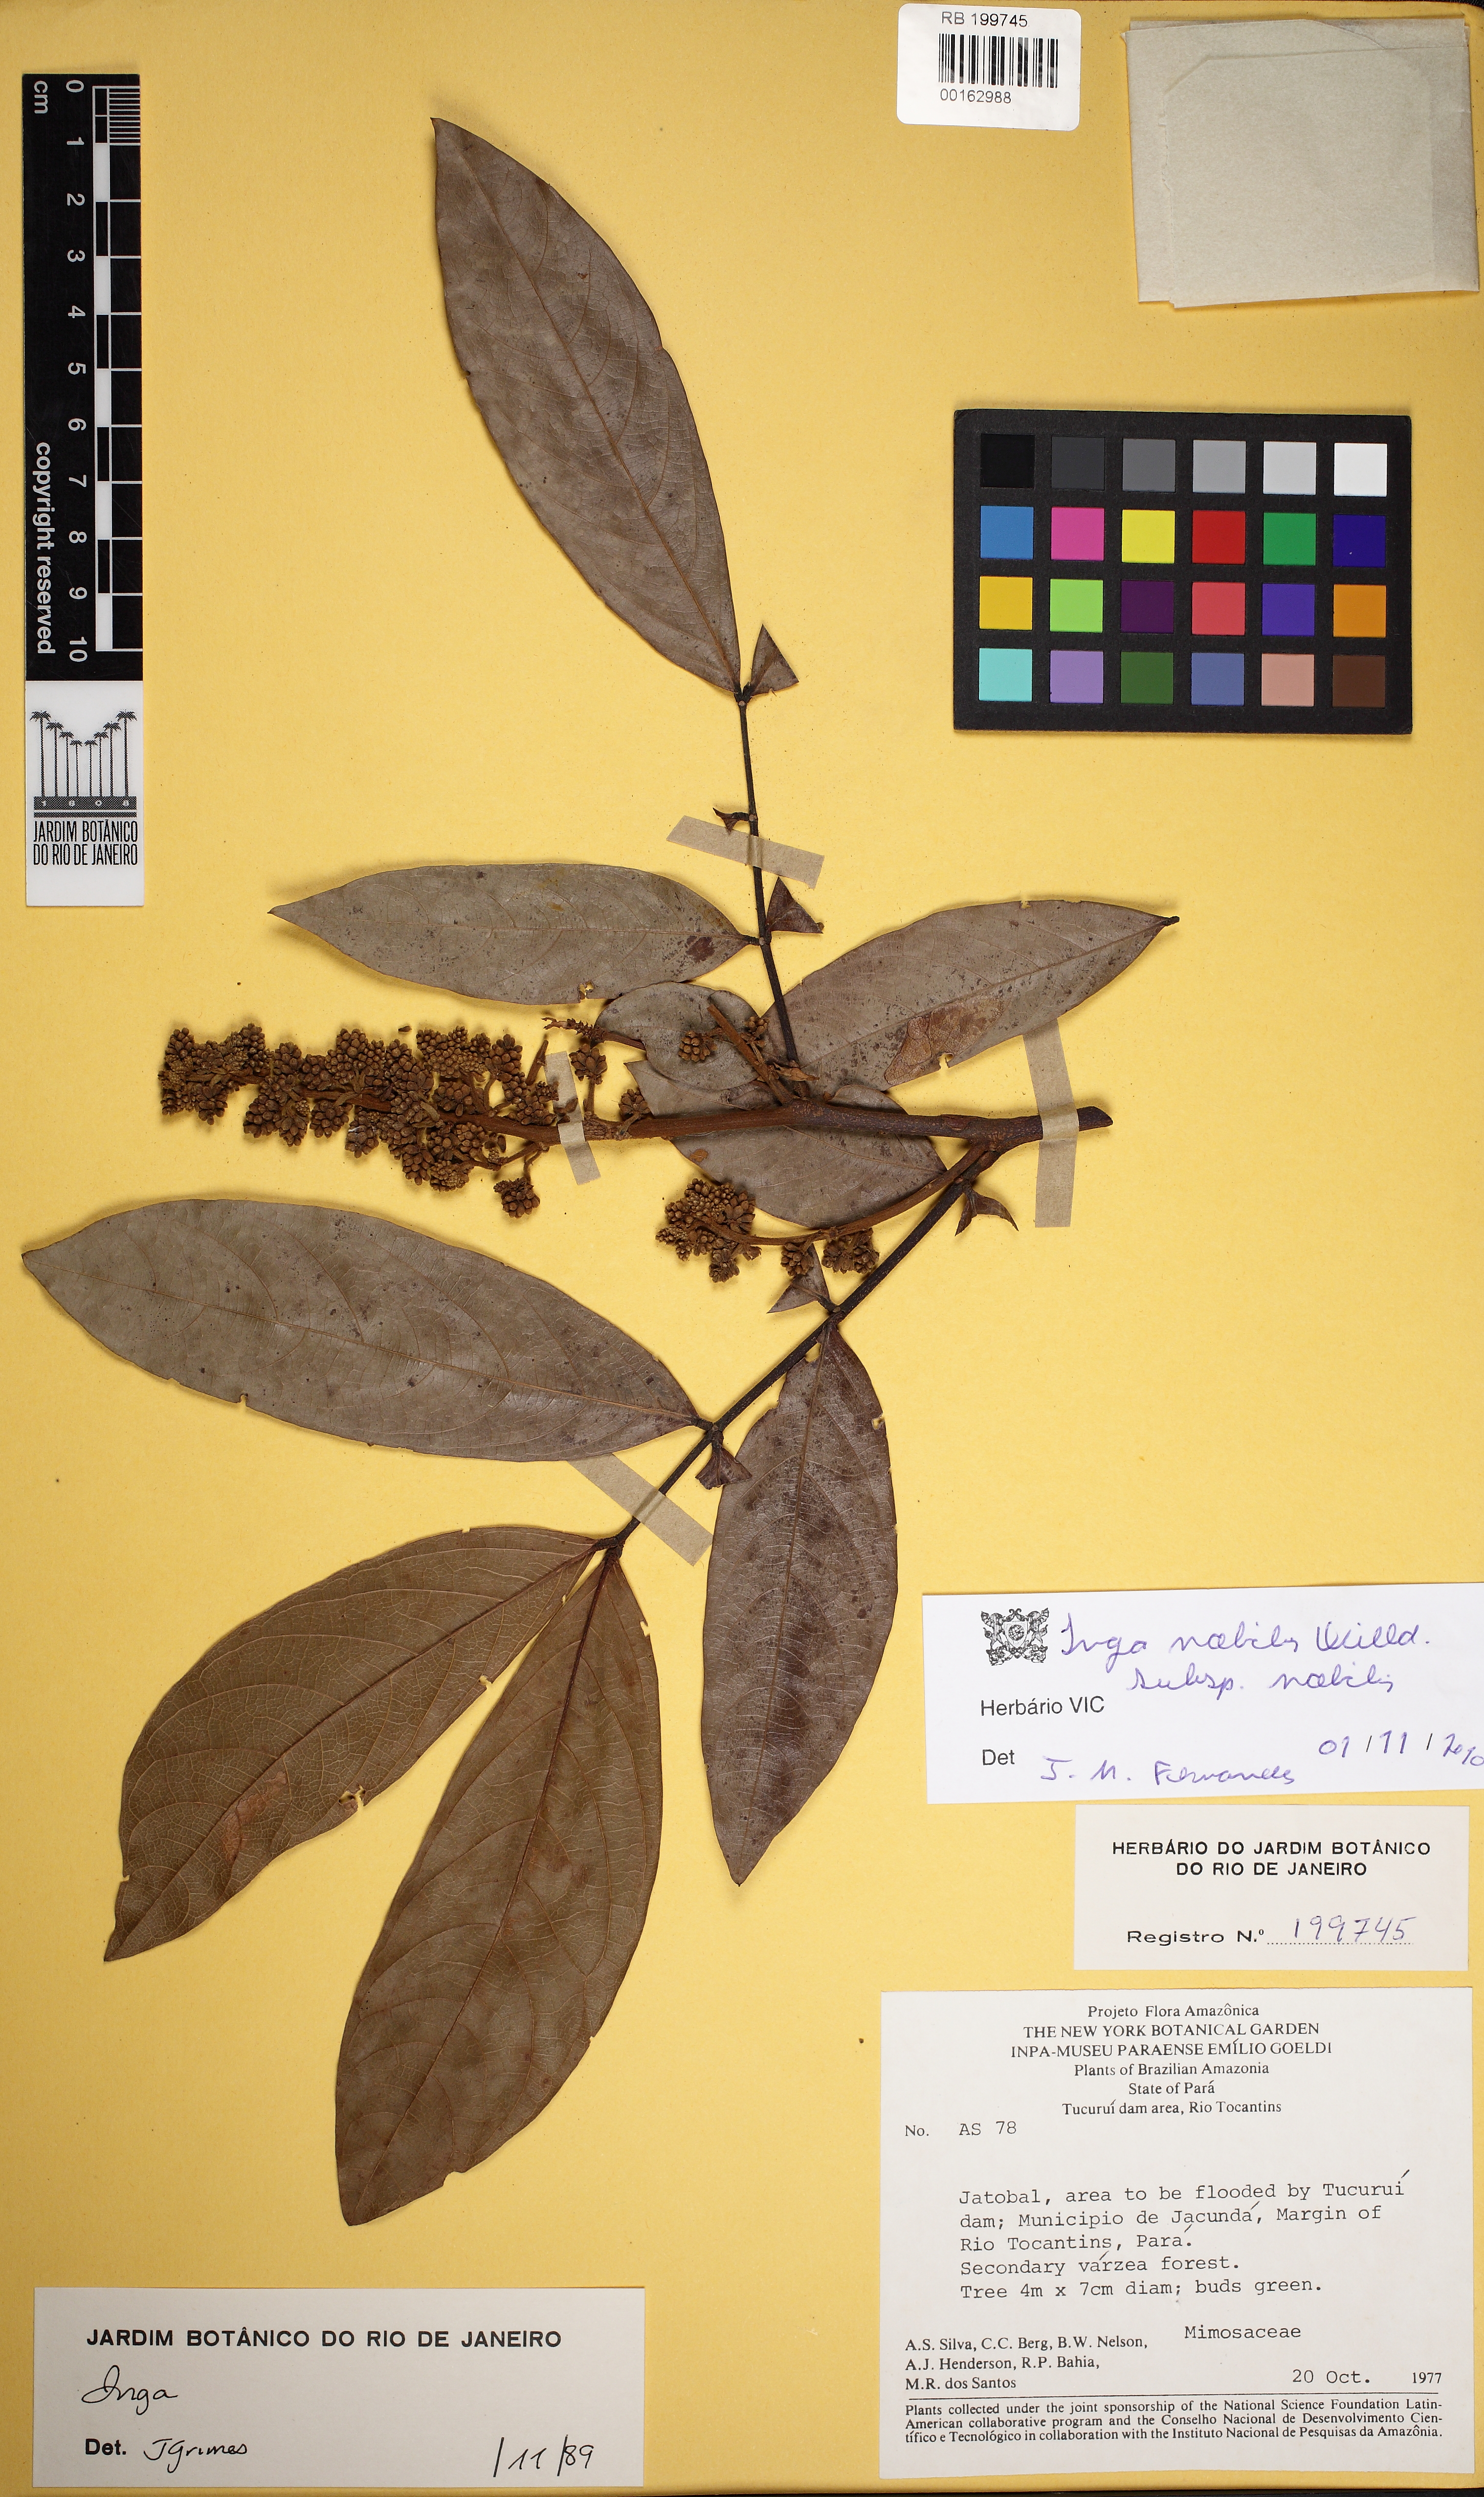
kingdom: Plantae
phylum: Tracheophyta
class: Magnoliopsida
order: Fabales
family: Fabaceae
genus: Inga
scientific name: Inga nobilis
